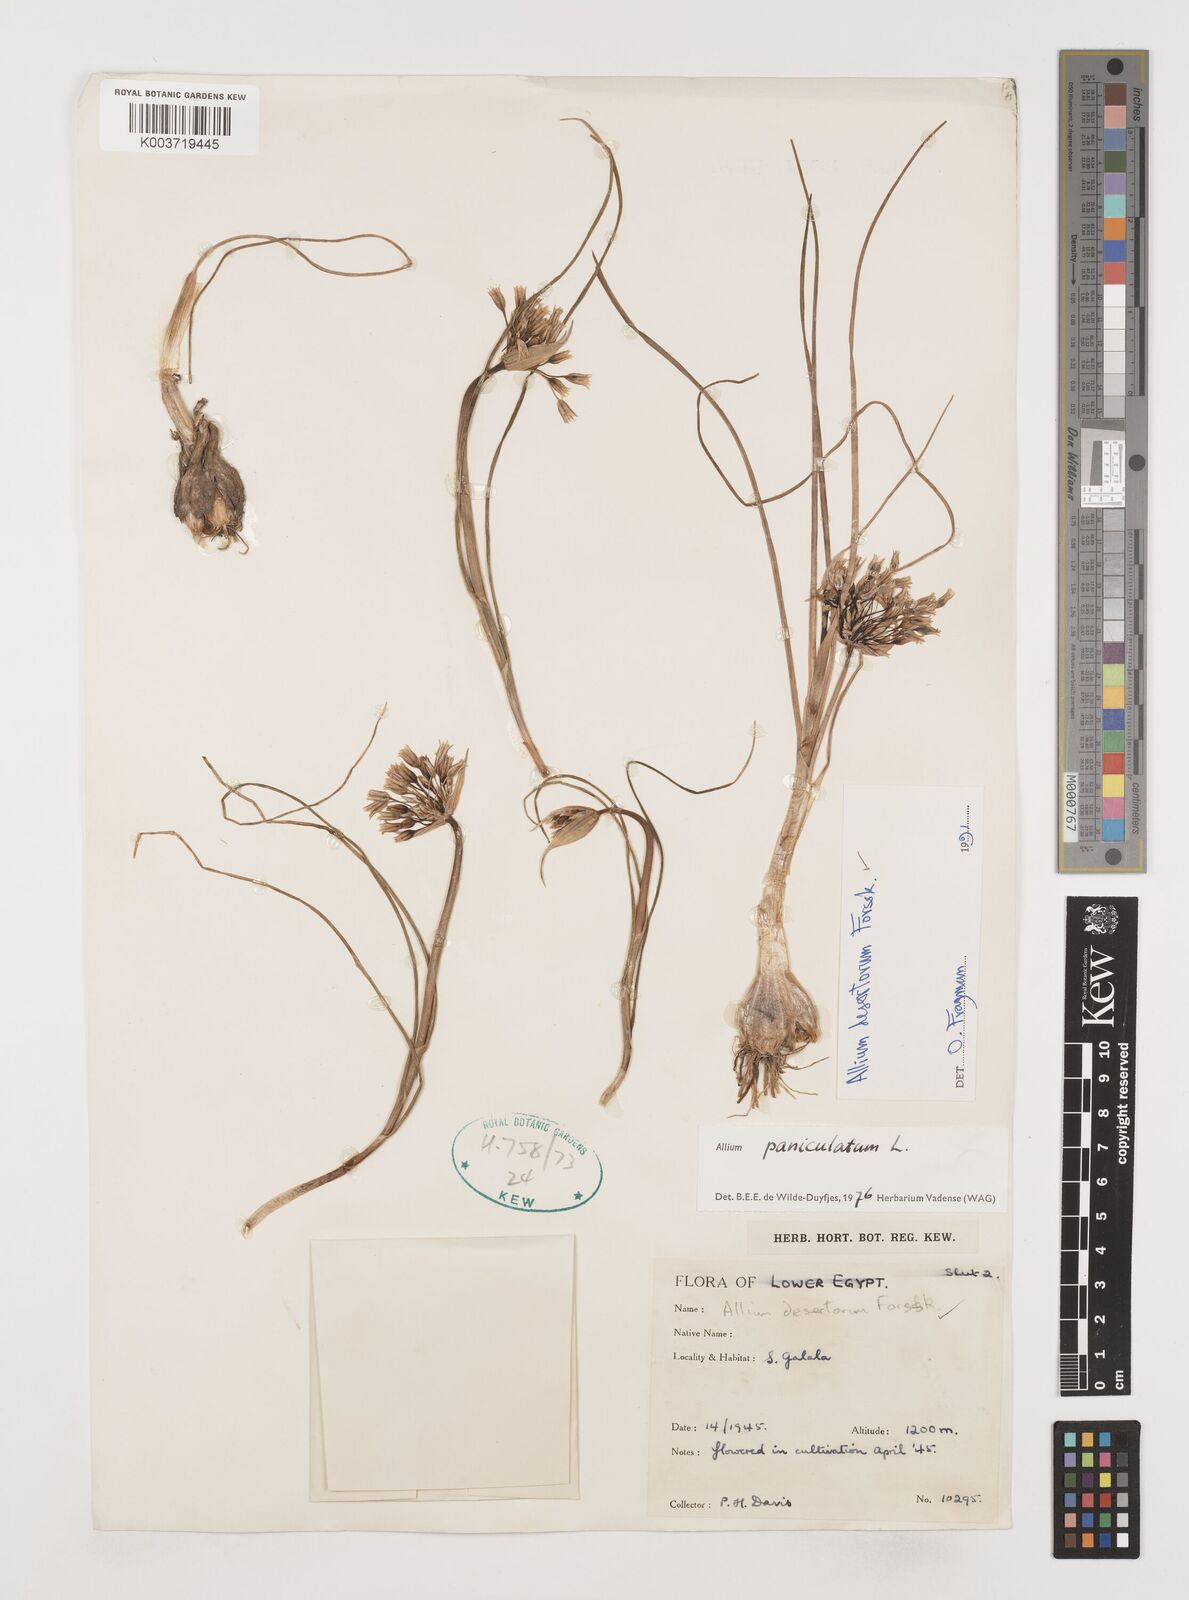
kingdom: Plantae
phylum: Tracheophyta
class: Liliopsida
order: Asparagales
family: Amaryllidaceae
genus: Allium
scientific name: Allium desertorum
